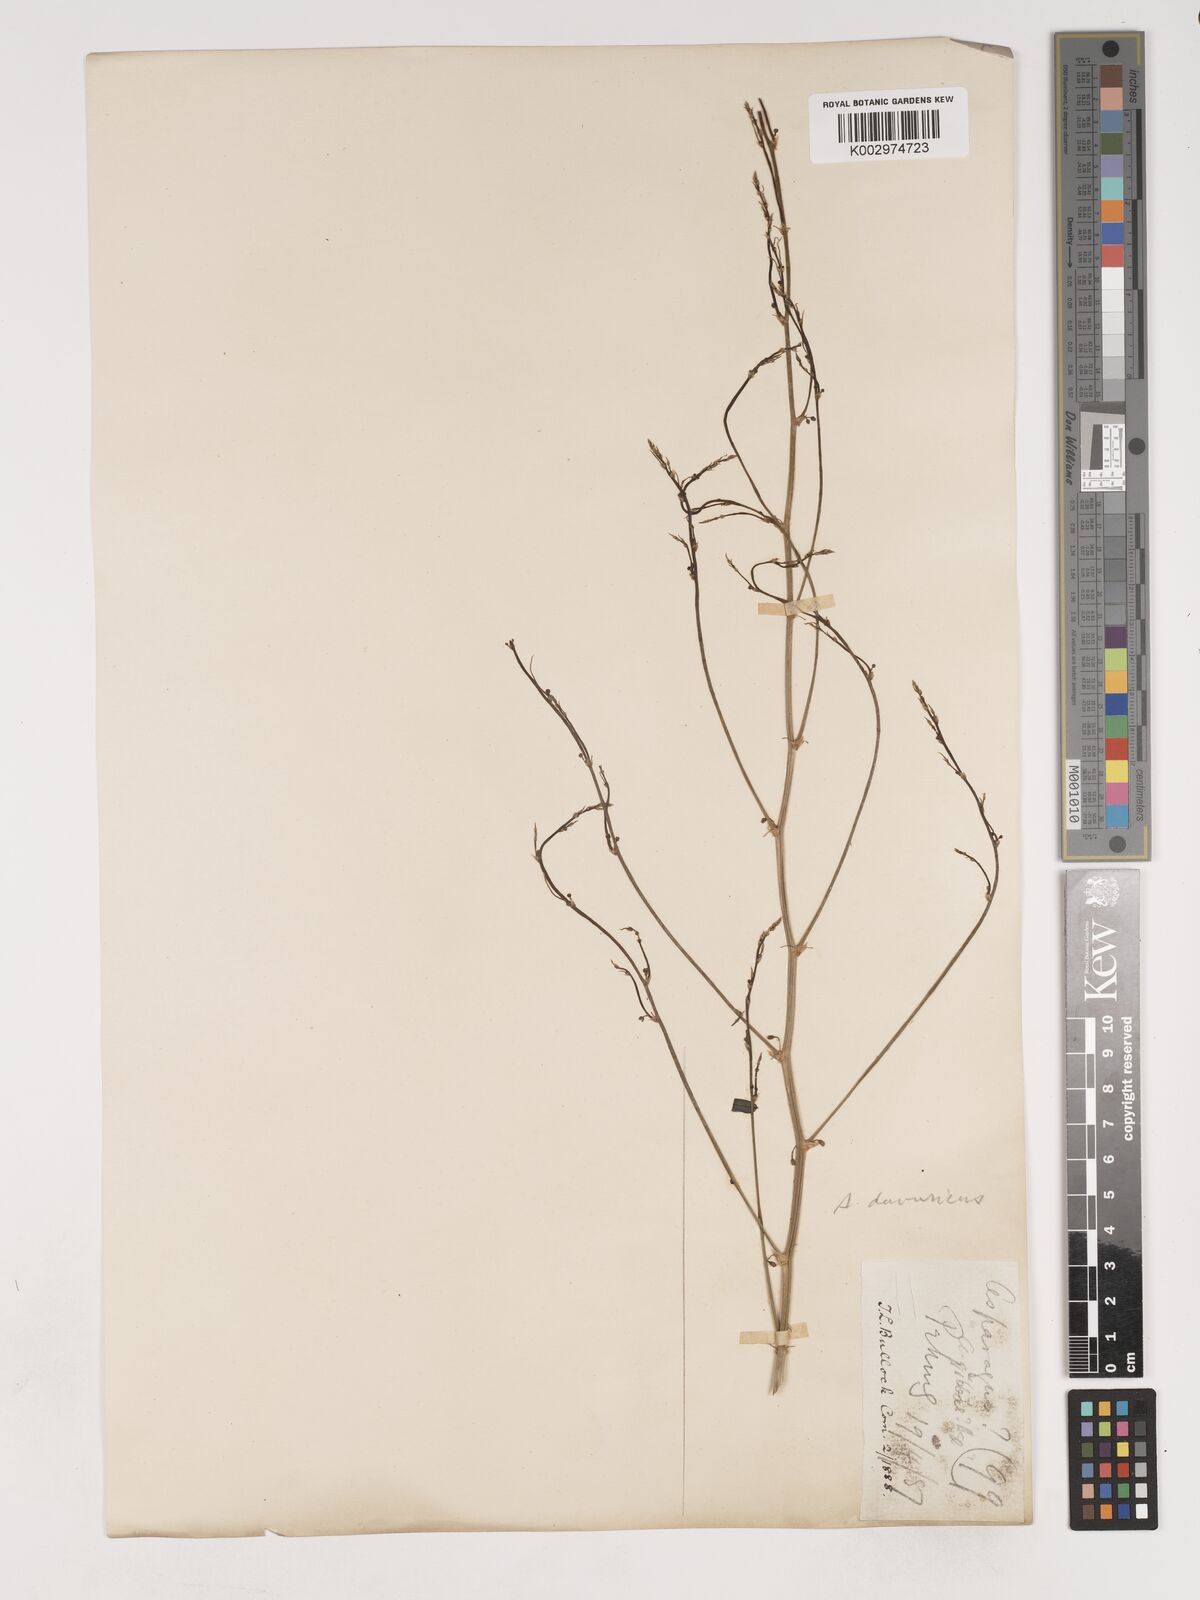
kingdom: Plantae
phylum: Tracheophyta
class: Liliopsida
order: Asparagales
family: Asparagaceae
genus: Asparagus
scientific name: Asparagus dauricus
